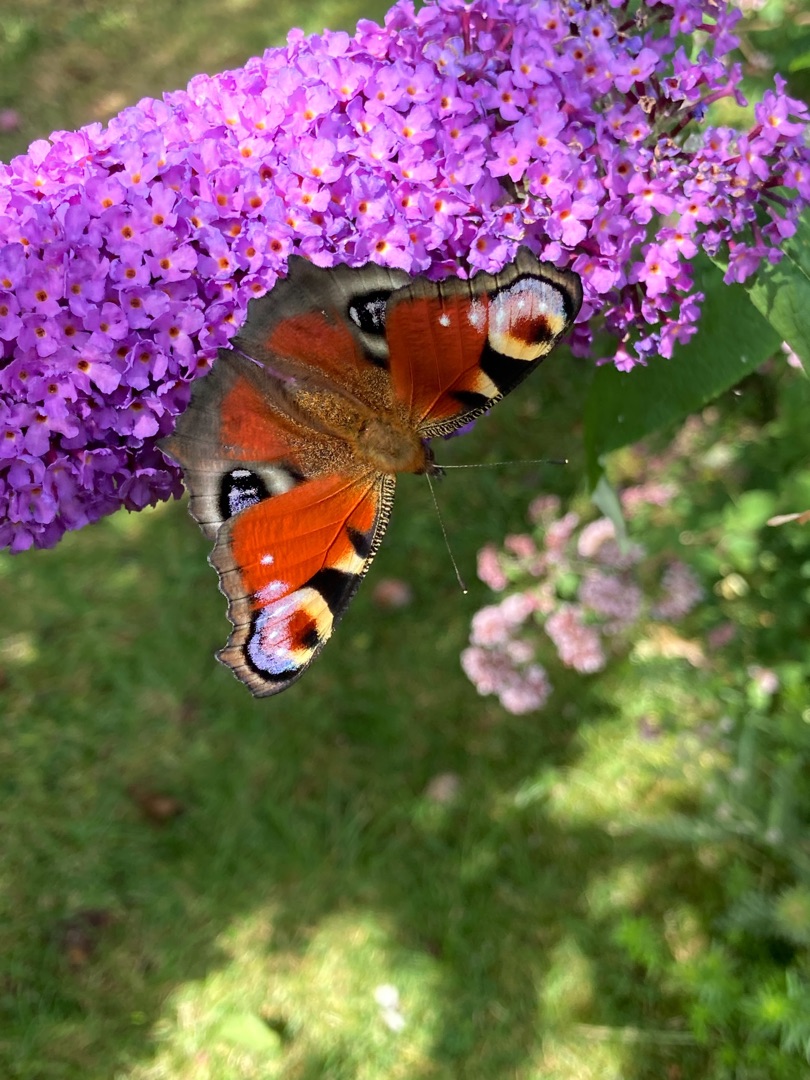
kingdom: Animalia
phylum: Arthropoda
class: Insecta
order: Lepidoptera
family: Nymphalidae
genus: Aglais
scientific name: Aglais io
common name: Dagpåfugleøje
